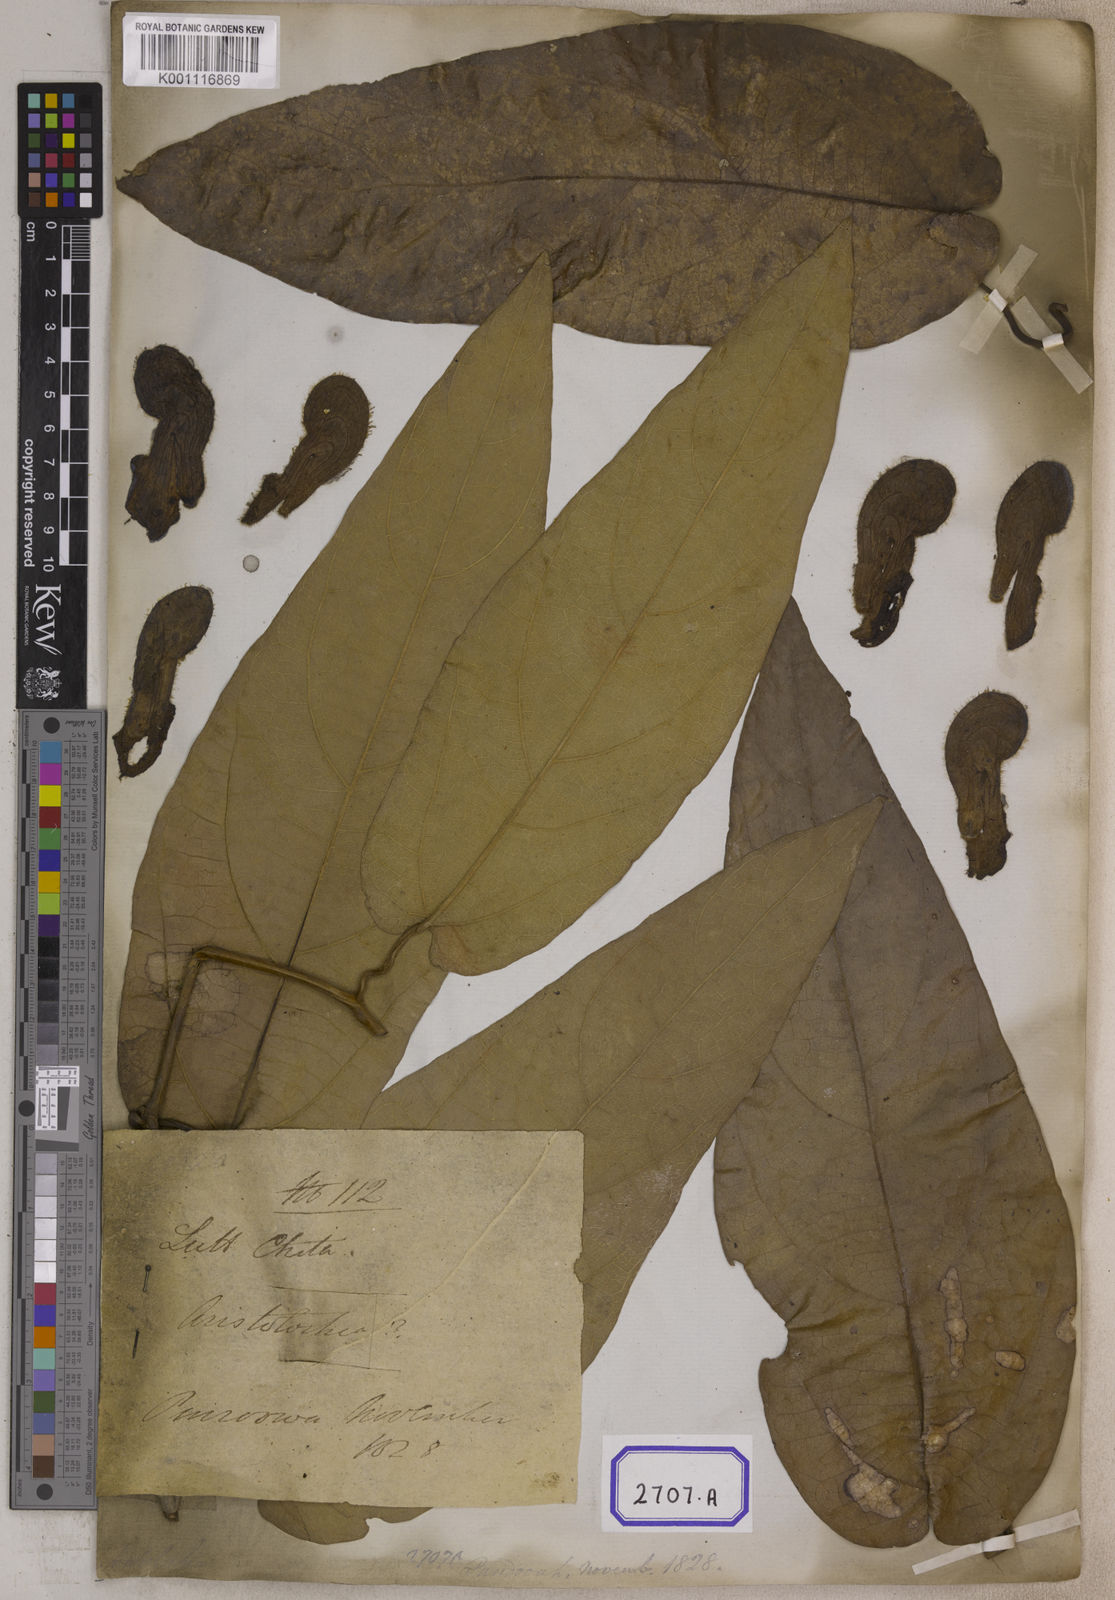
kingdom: Plantae
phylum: Tracheophyta
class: Magnoliopsida
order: Piperales
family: Aristolochiaceae
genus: Isotrema
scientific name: Isotrema saccatum
